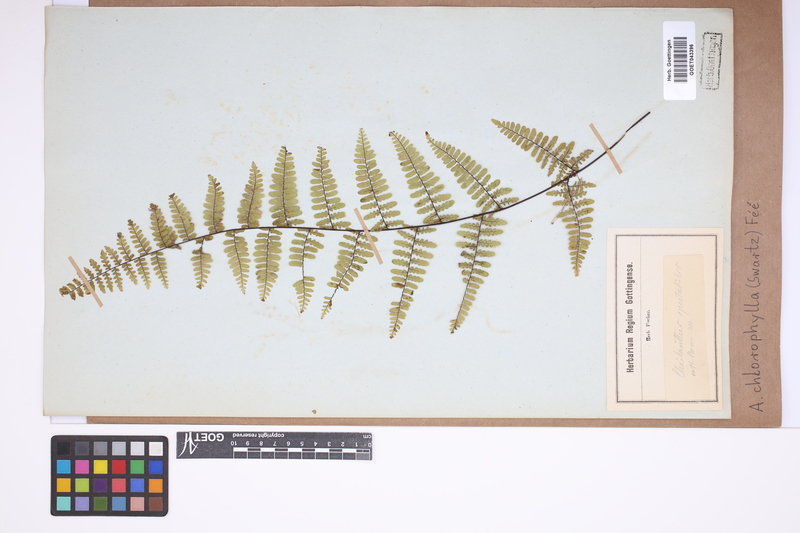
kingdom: Plantae
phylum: Tracheophyta
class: Polypodiopsida
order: Polypodiales
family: Pteridaceae
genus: Adiantopsis
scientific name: Adiantopsis chlorophylla
